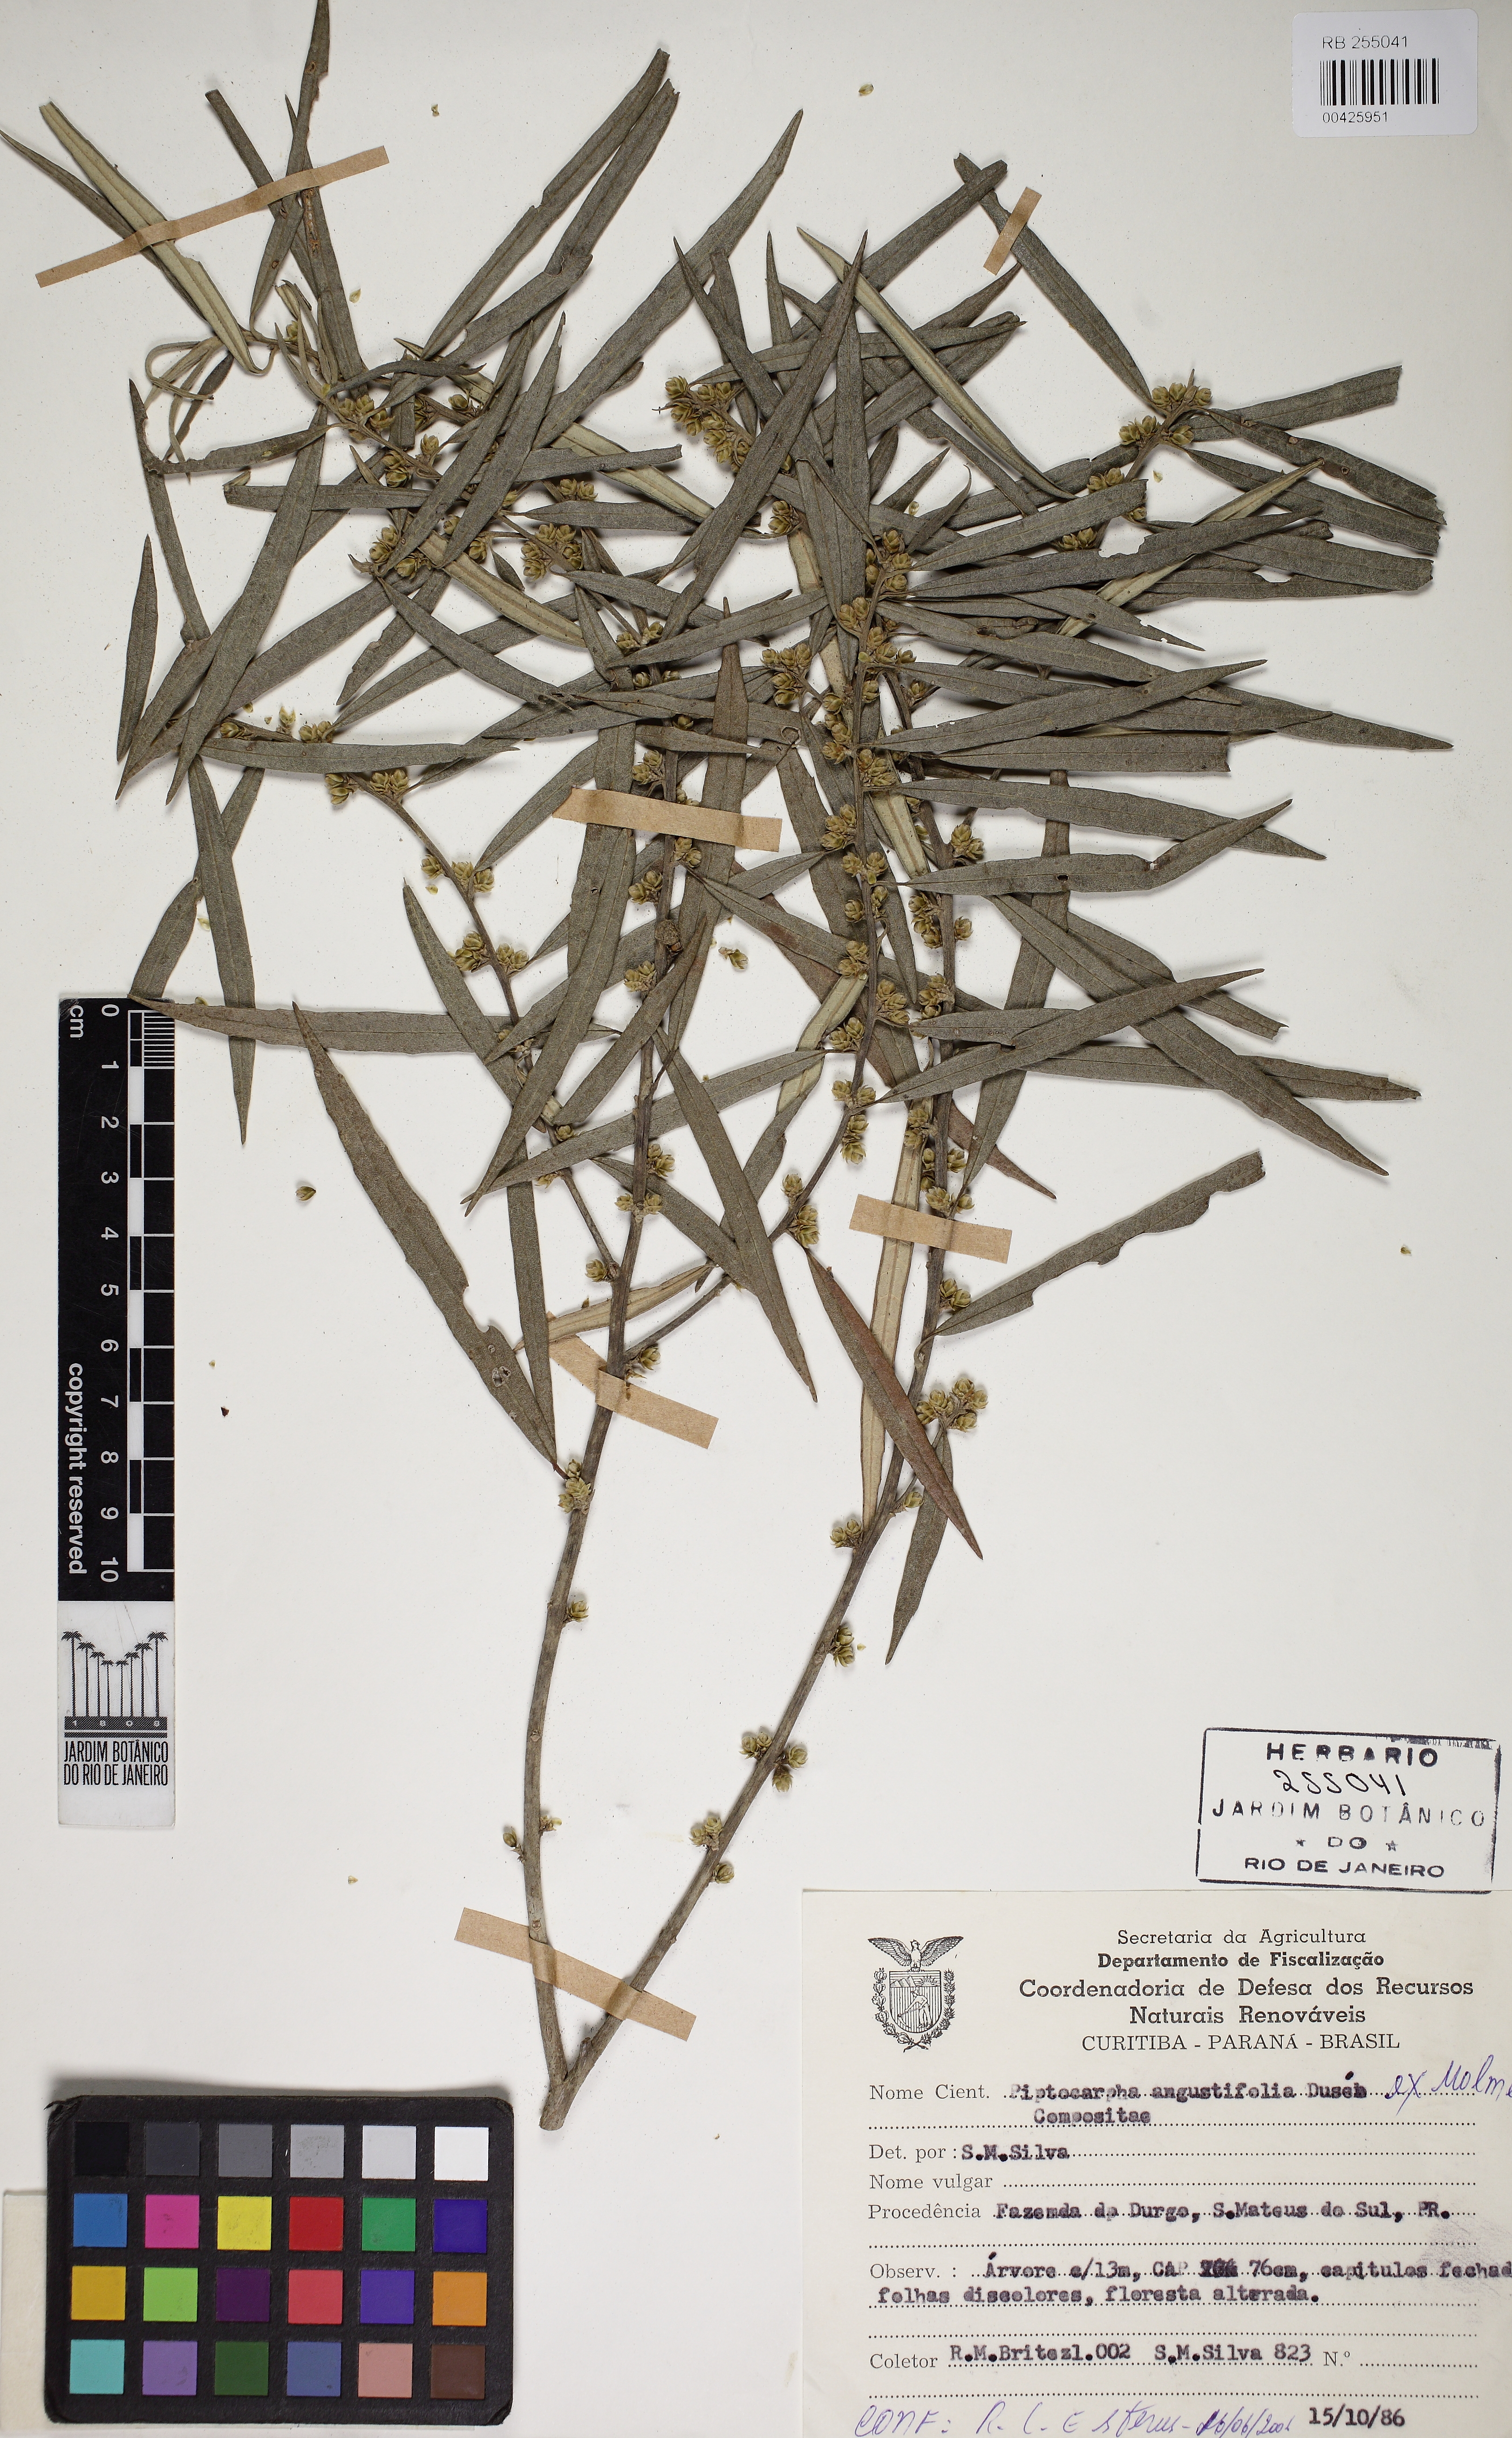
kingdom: Plantae
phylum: Tracheophyta
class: Magnoliopsida
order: Asterales
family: Asteraceae
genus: Piptocarpha
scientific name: Piptocarpha angustifolia
